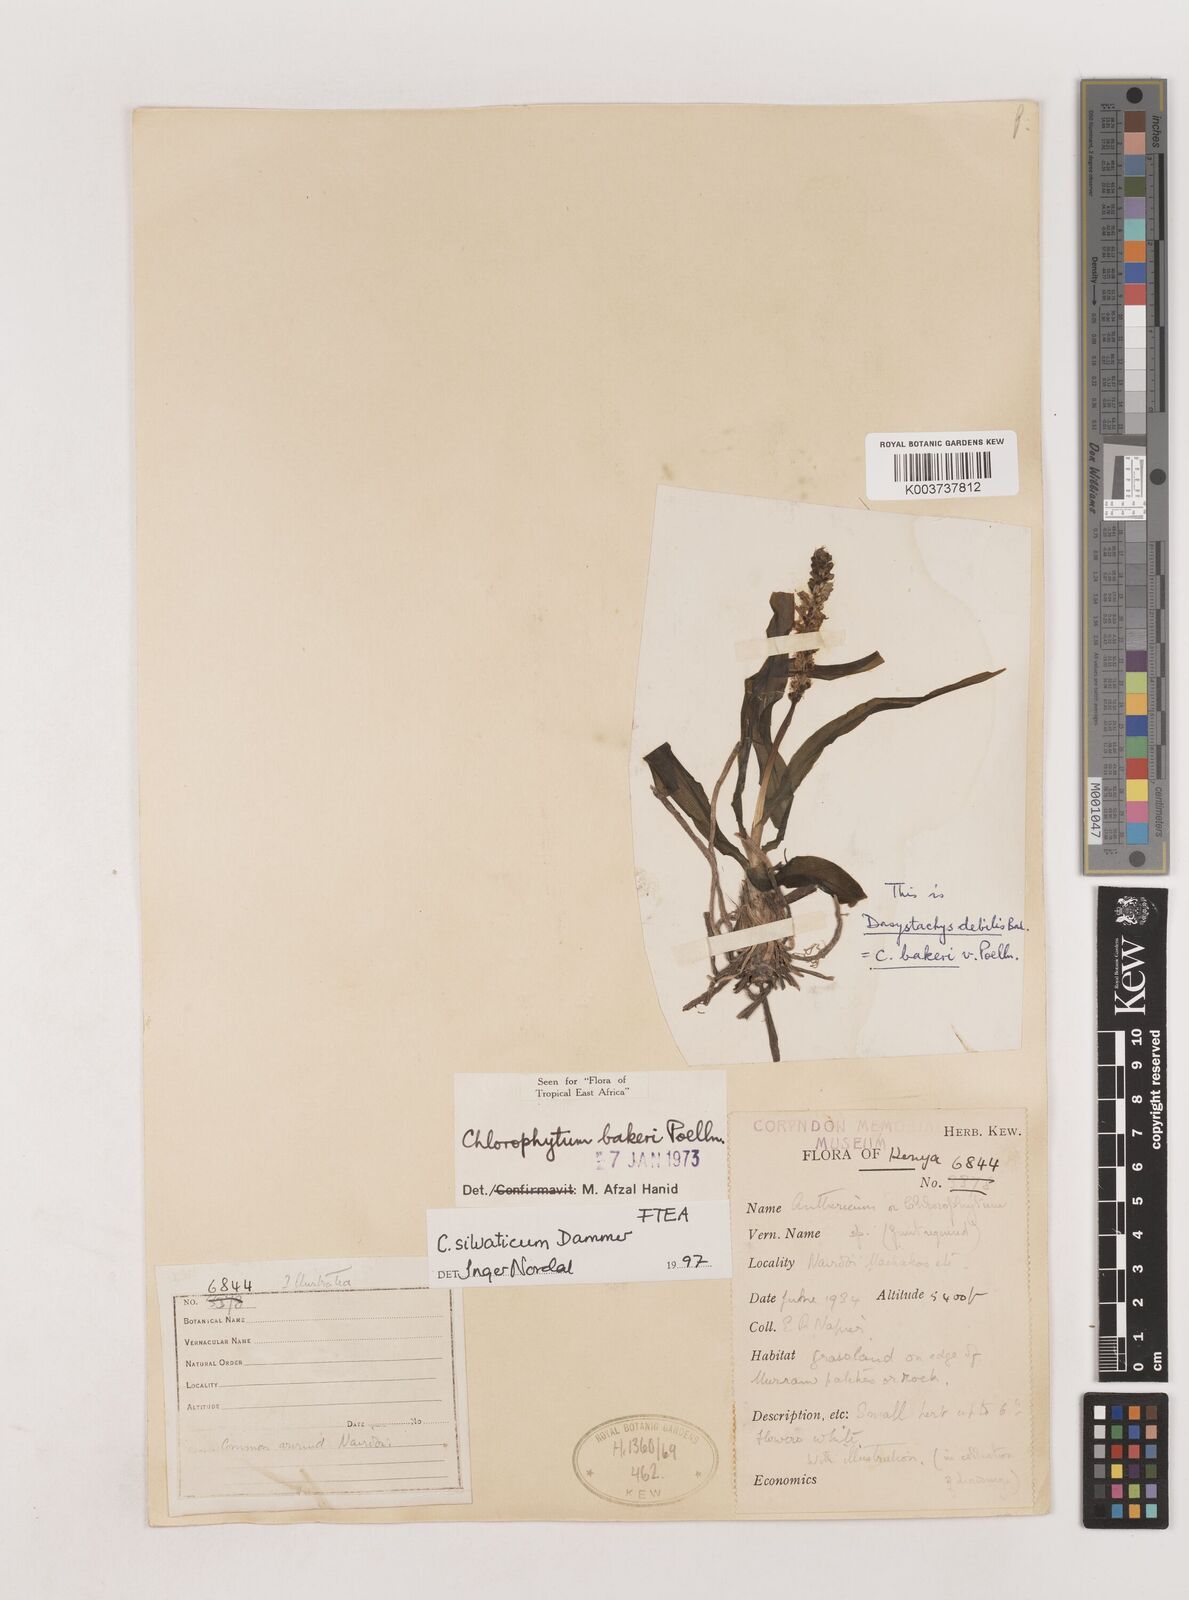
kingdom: Plantae
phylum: Tracheophyta
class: Liliopsida
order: Asparagales
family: Asparagaceae
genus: Chlorophytum
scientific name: Chlorophytum africanum
